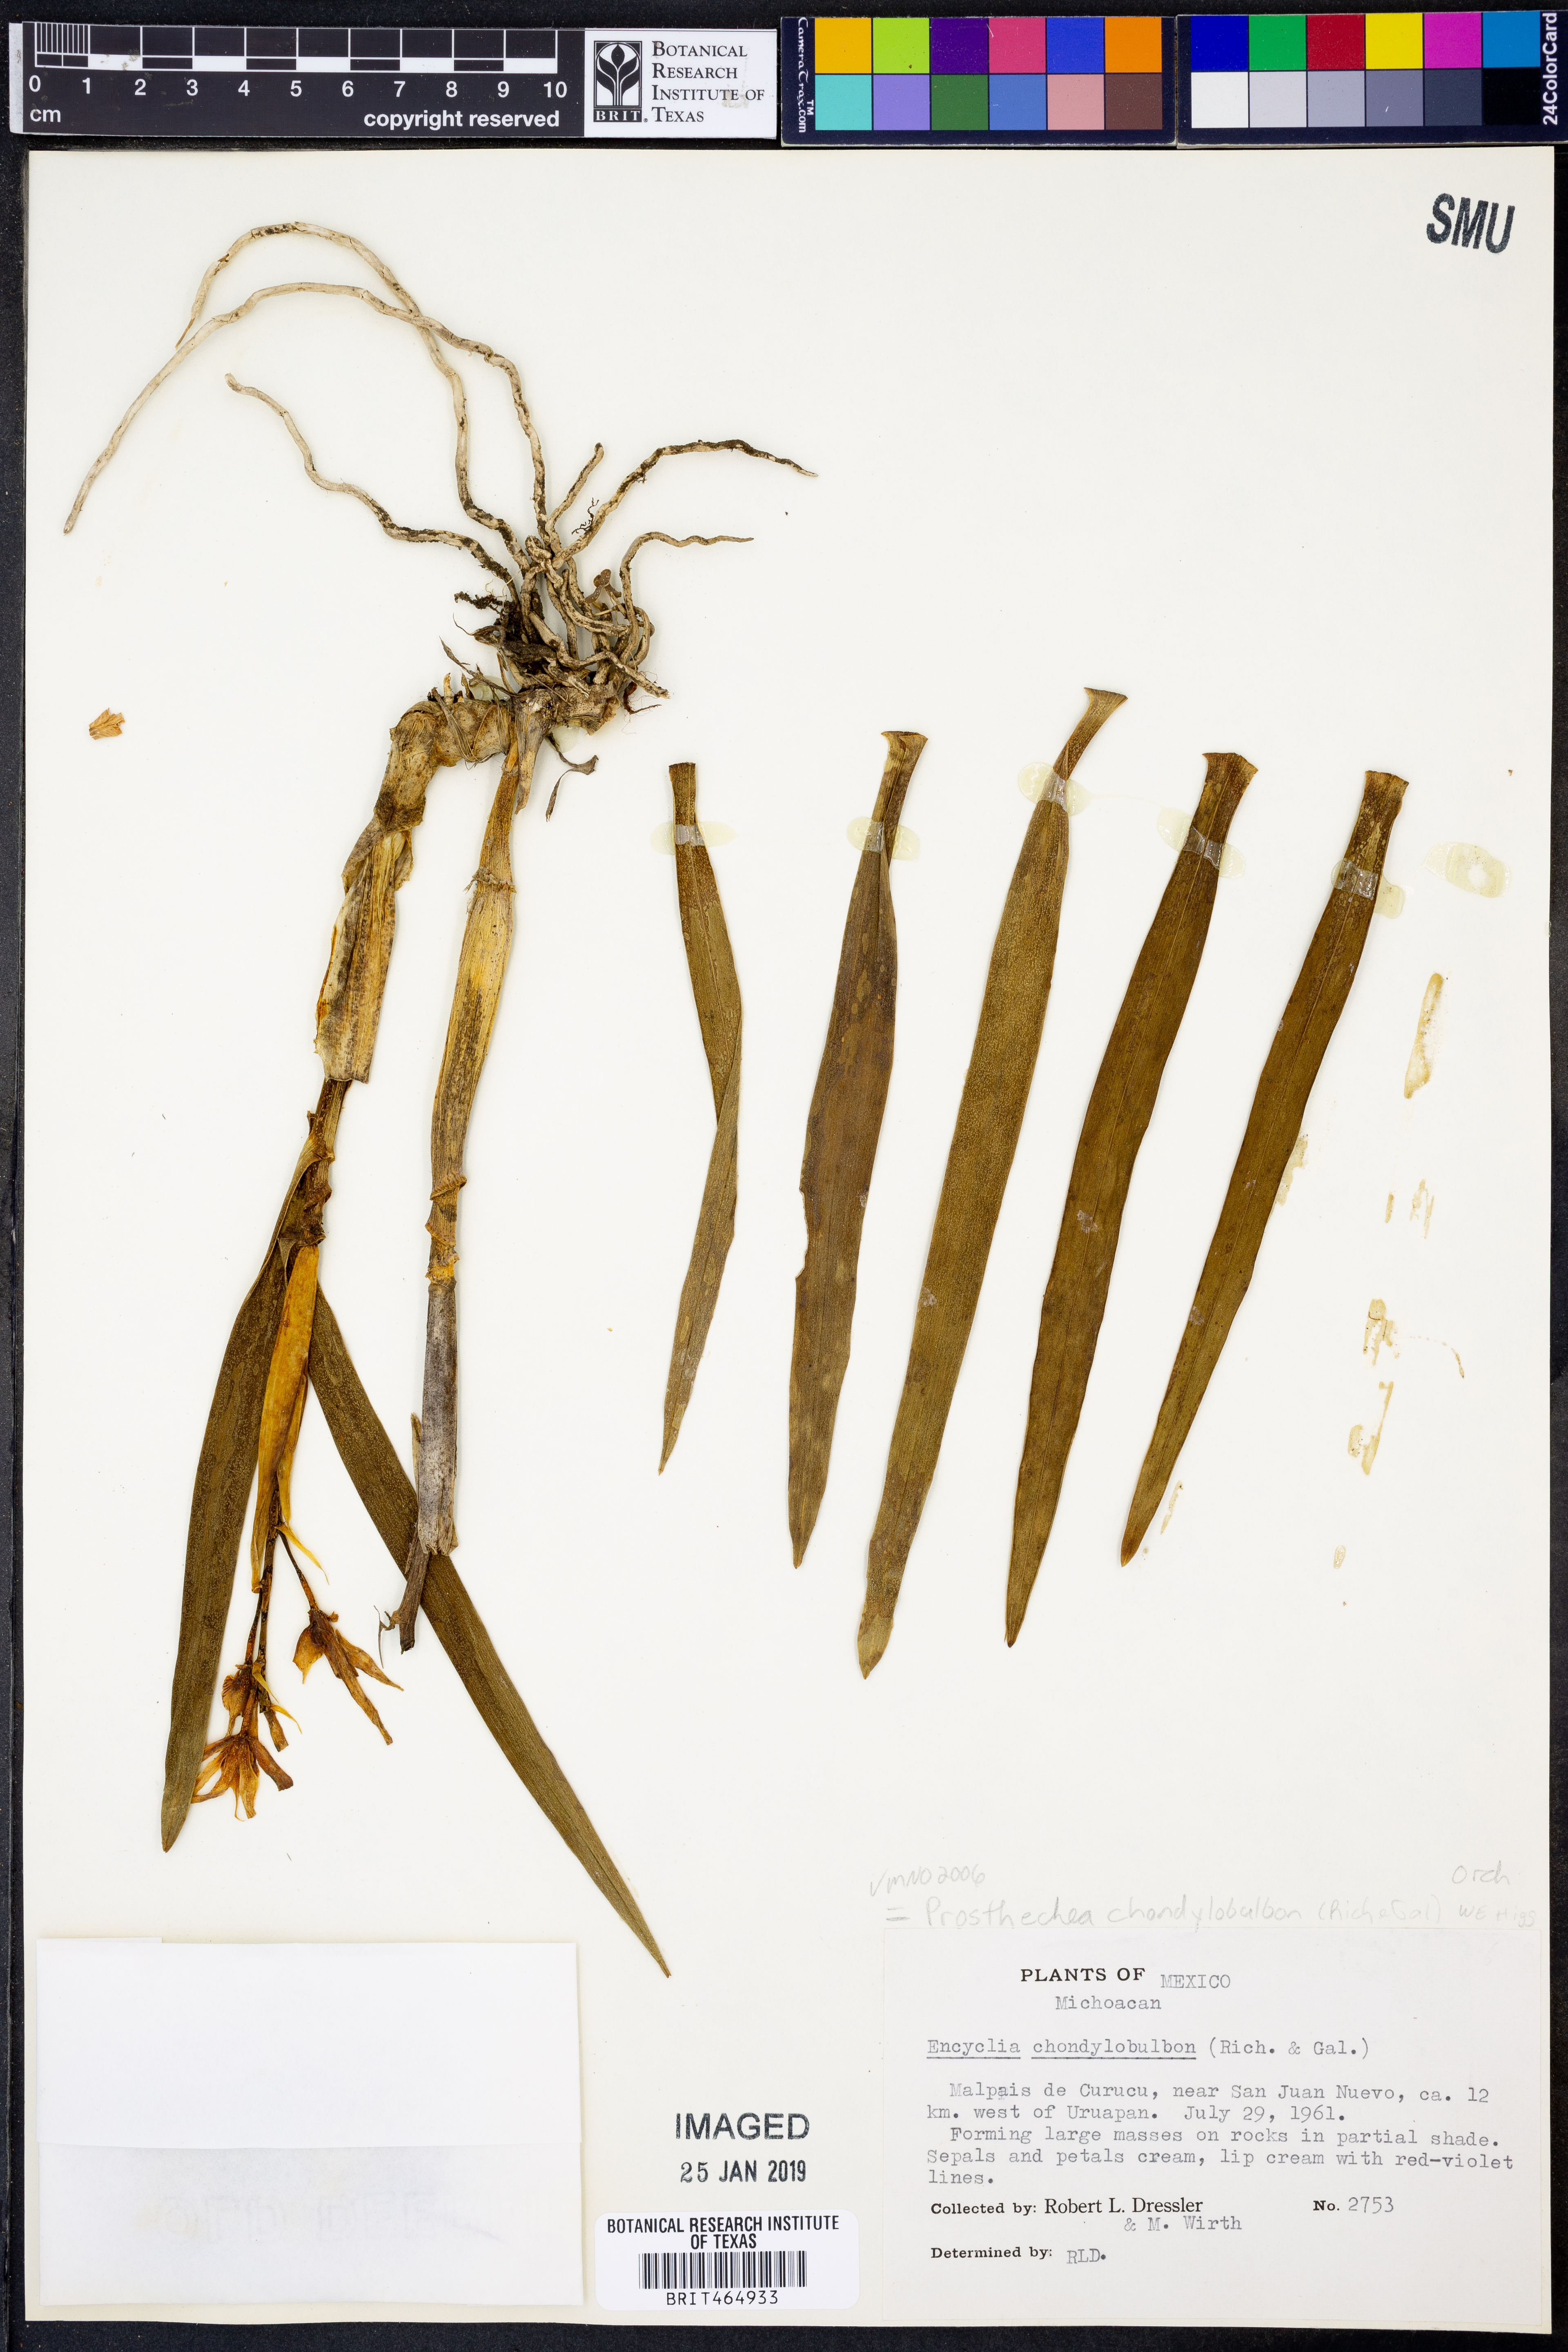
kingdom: Plantae
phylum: Tracheophyta
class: Liliopsida
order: Asparagales
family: Orchidaceae
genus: Prosthechea
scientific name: Prosthechea chondylobulbon
